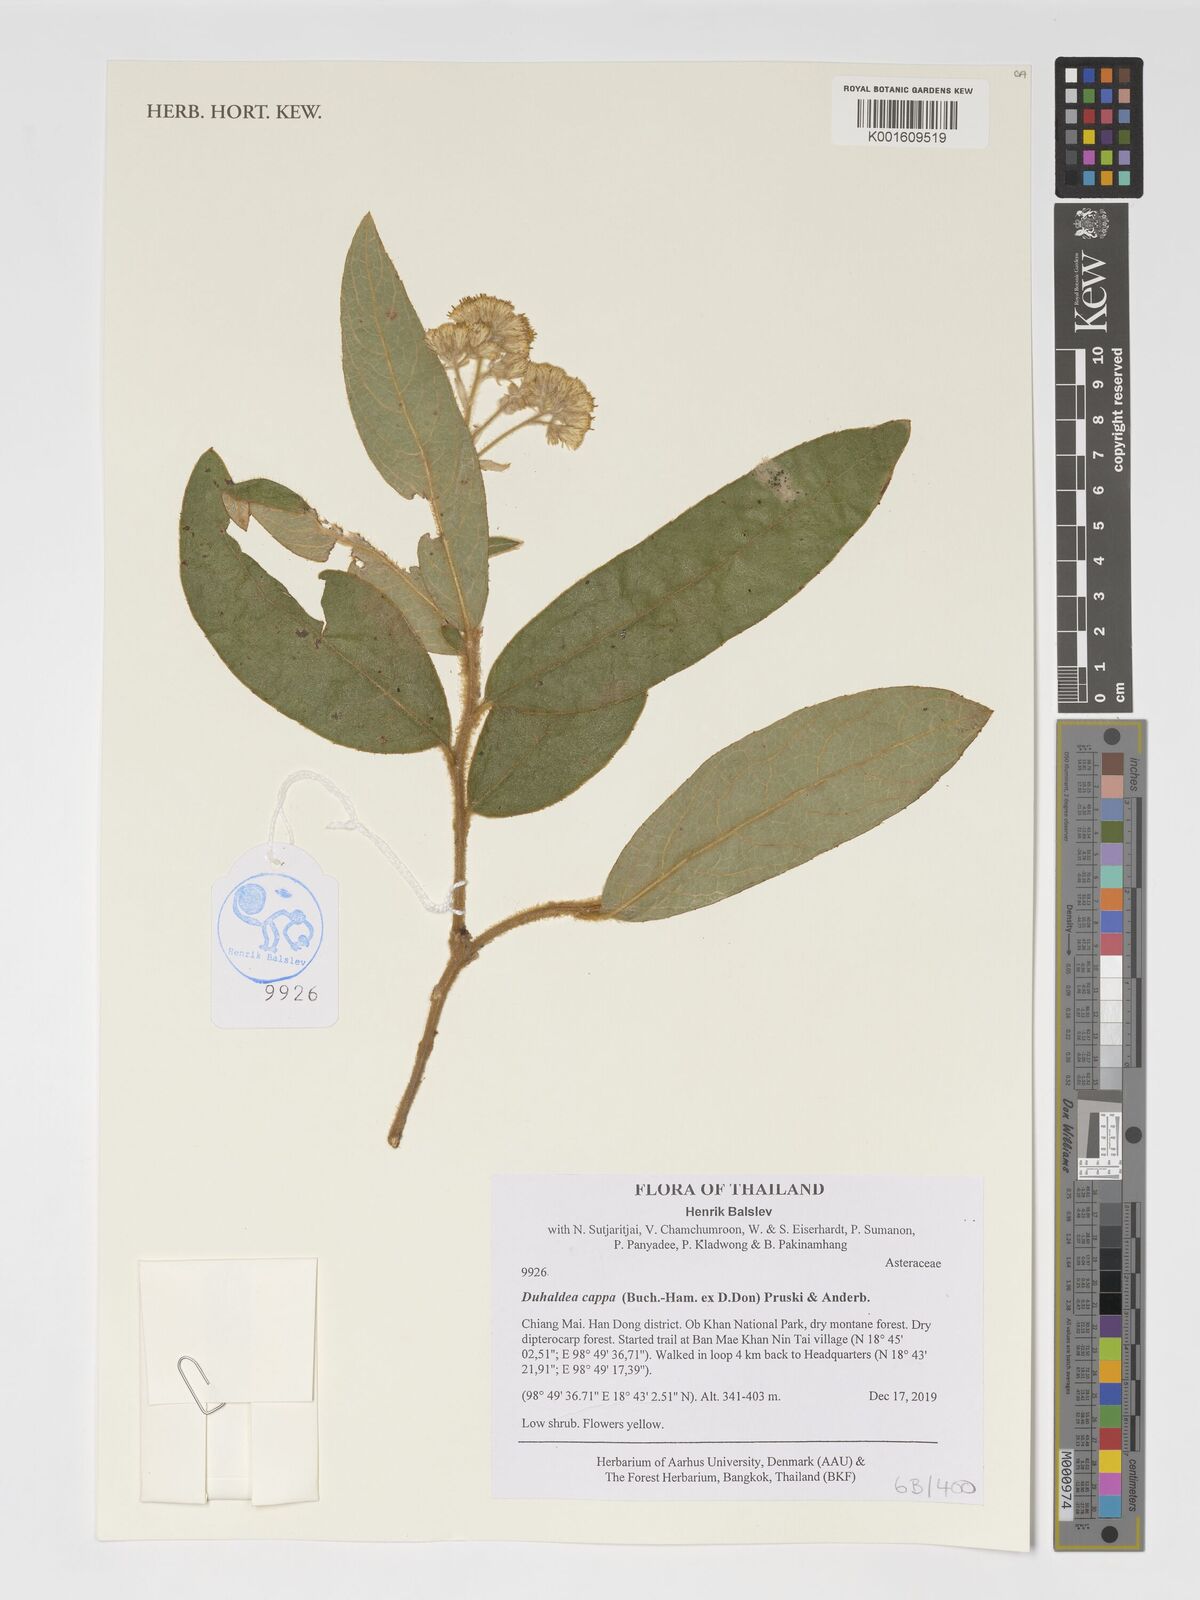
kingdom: Plantae
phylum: Tracheophyta
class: Magnoliopsida
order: Asterales
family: Asteraceae
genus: Duhaldea
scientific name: Duhaldea cappa
